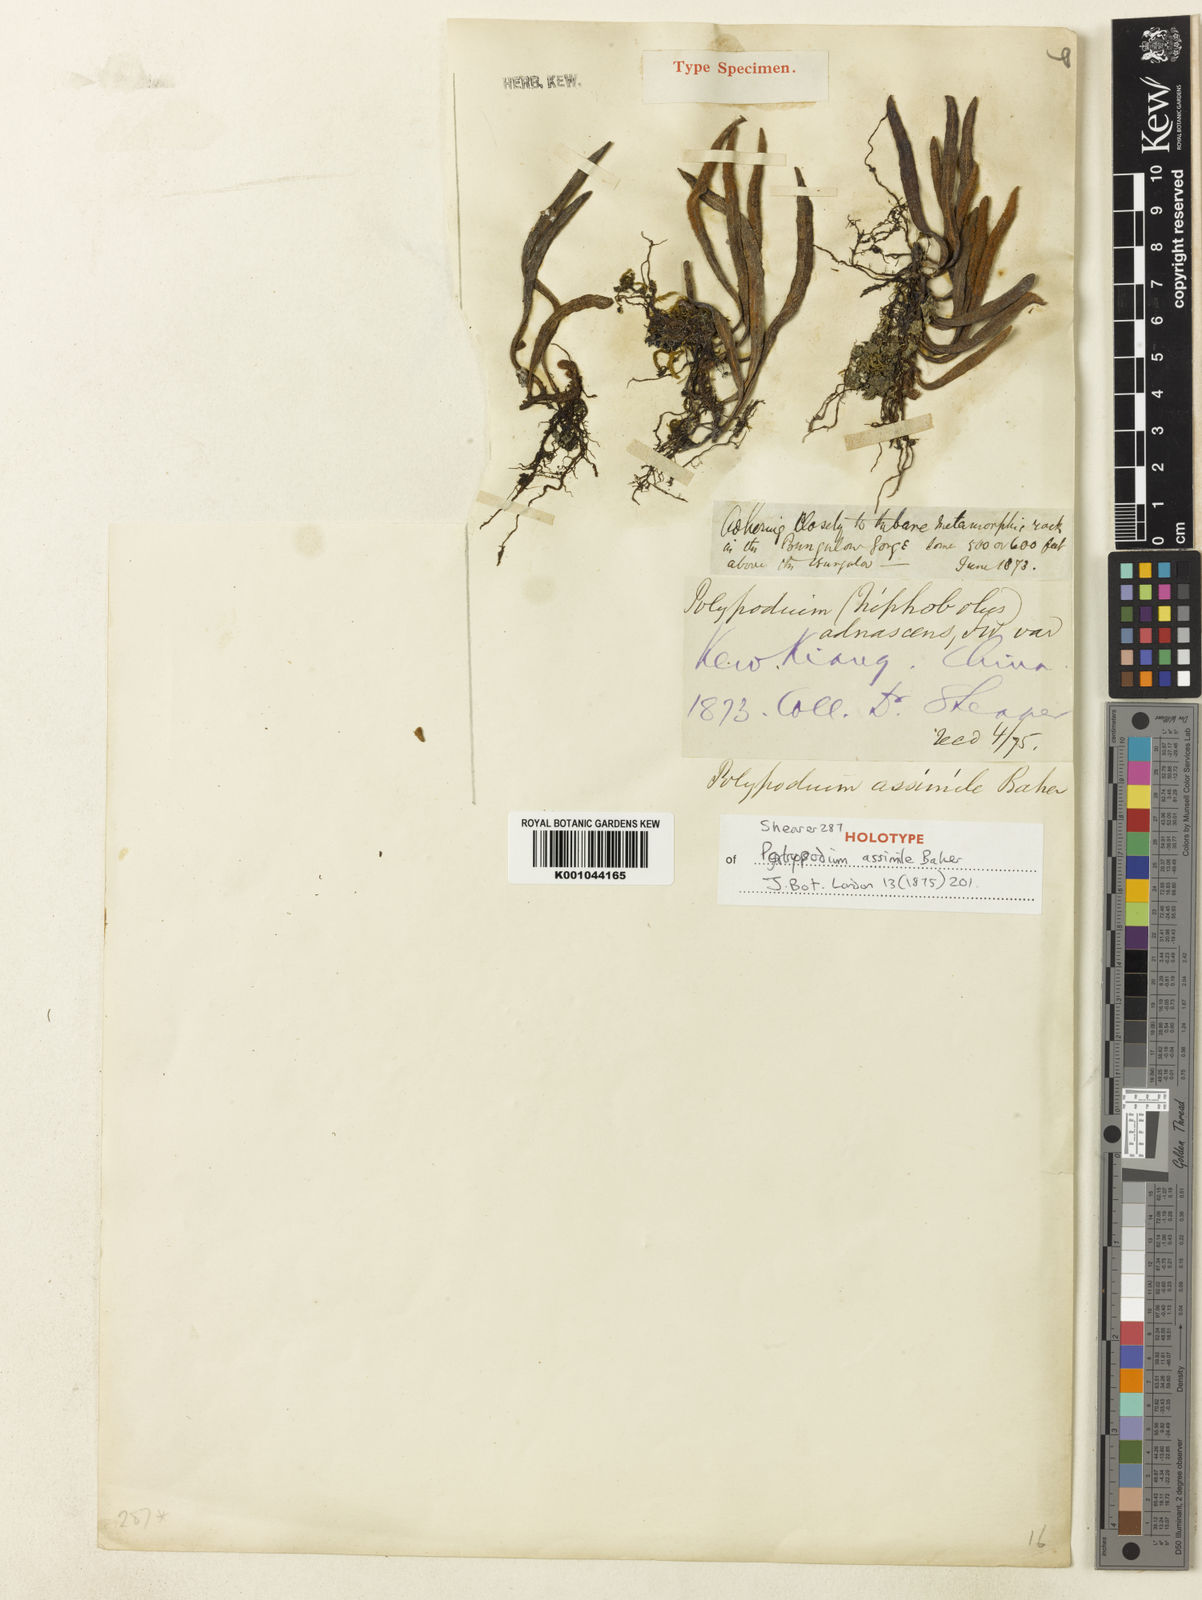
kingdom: Plantae
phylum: Tracheophyta
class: Polypodiopsida
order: Polypodiales
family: Polypodiaceae
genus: Pyrrosia
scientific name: Pyrrosia assimilis
